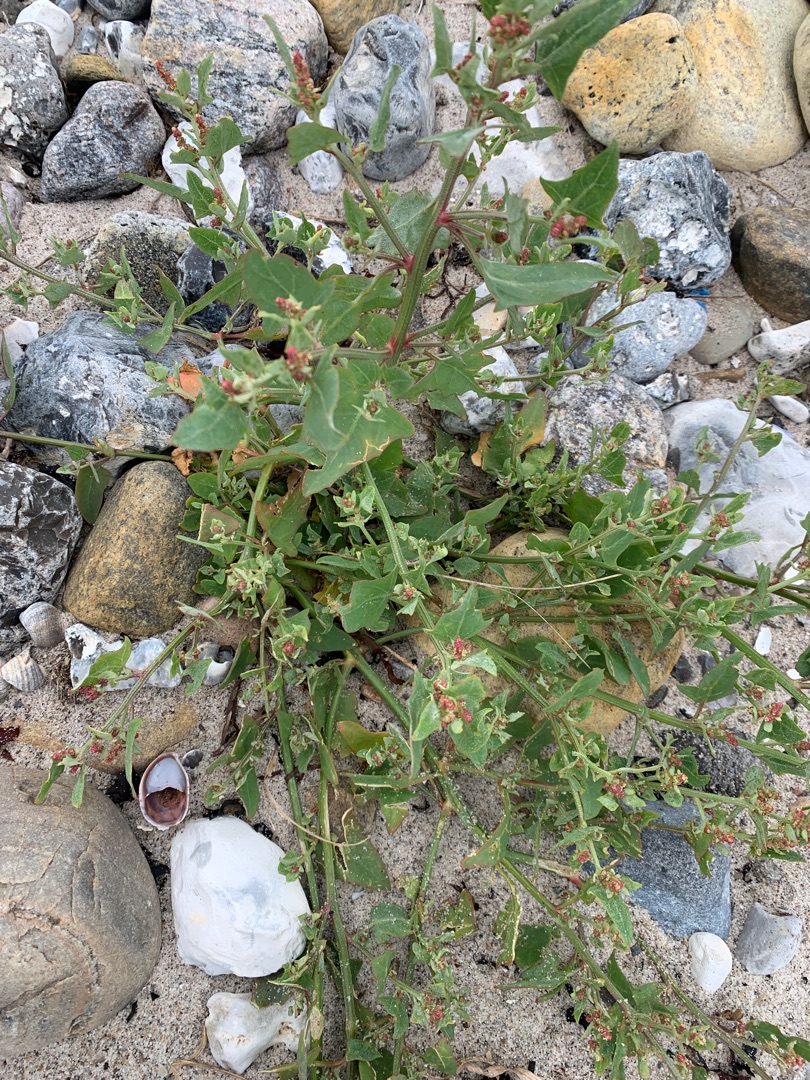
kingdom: Plantae
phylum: Tracheophyta
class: Magnoliopsida
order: Caryophyllales
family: Amaranthaceae
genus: Atriplex
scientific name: Atriplex prostrata
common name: Spyd-mælde
